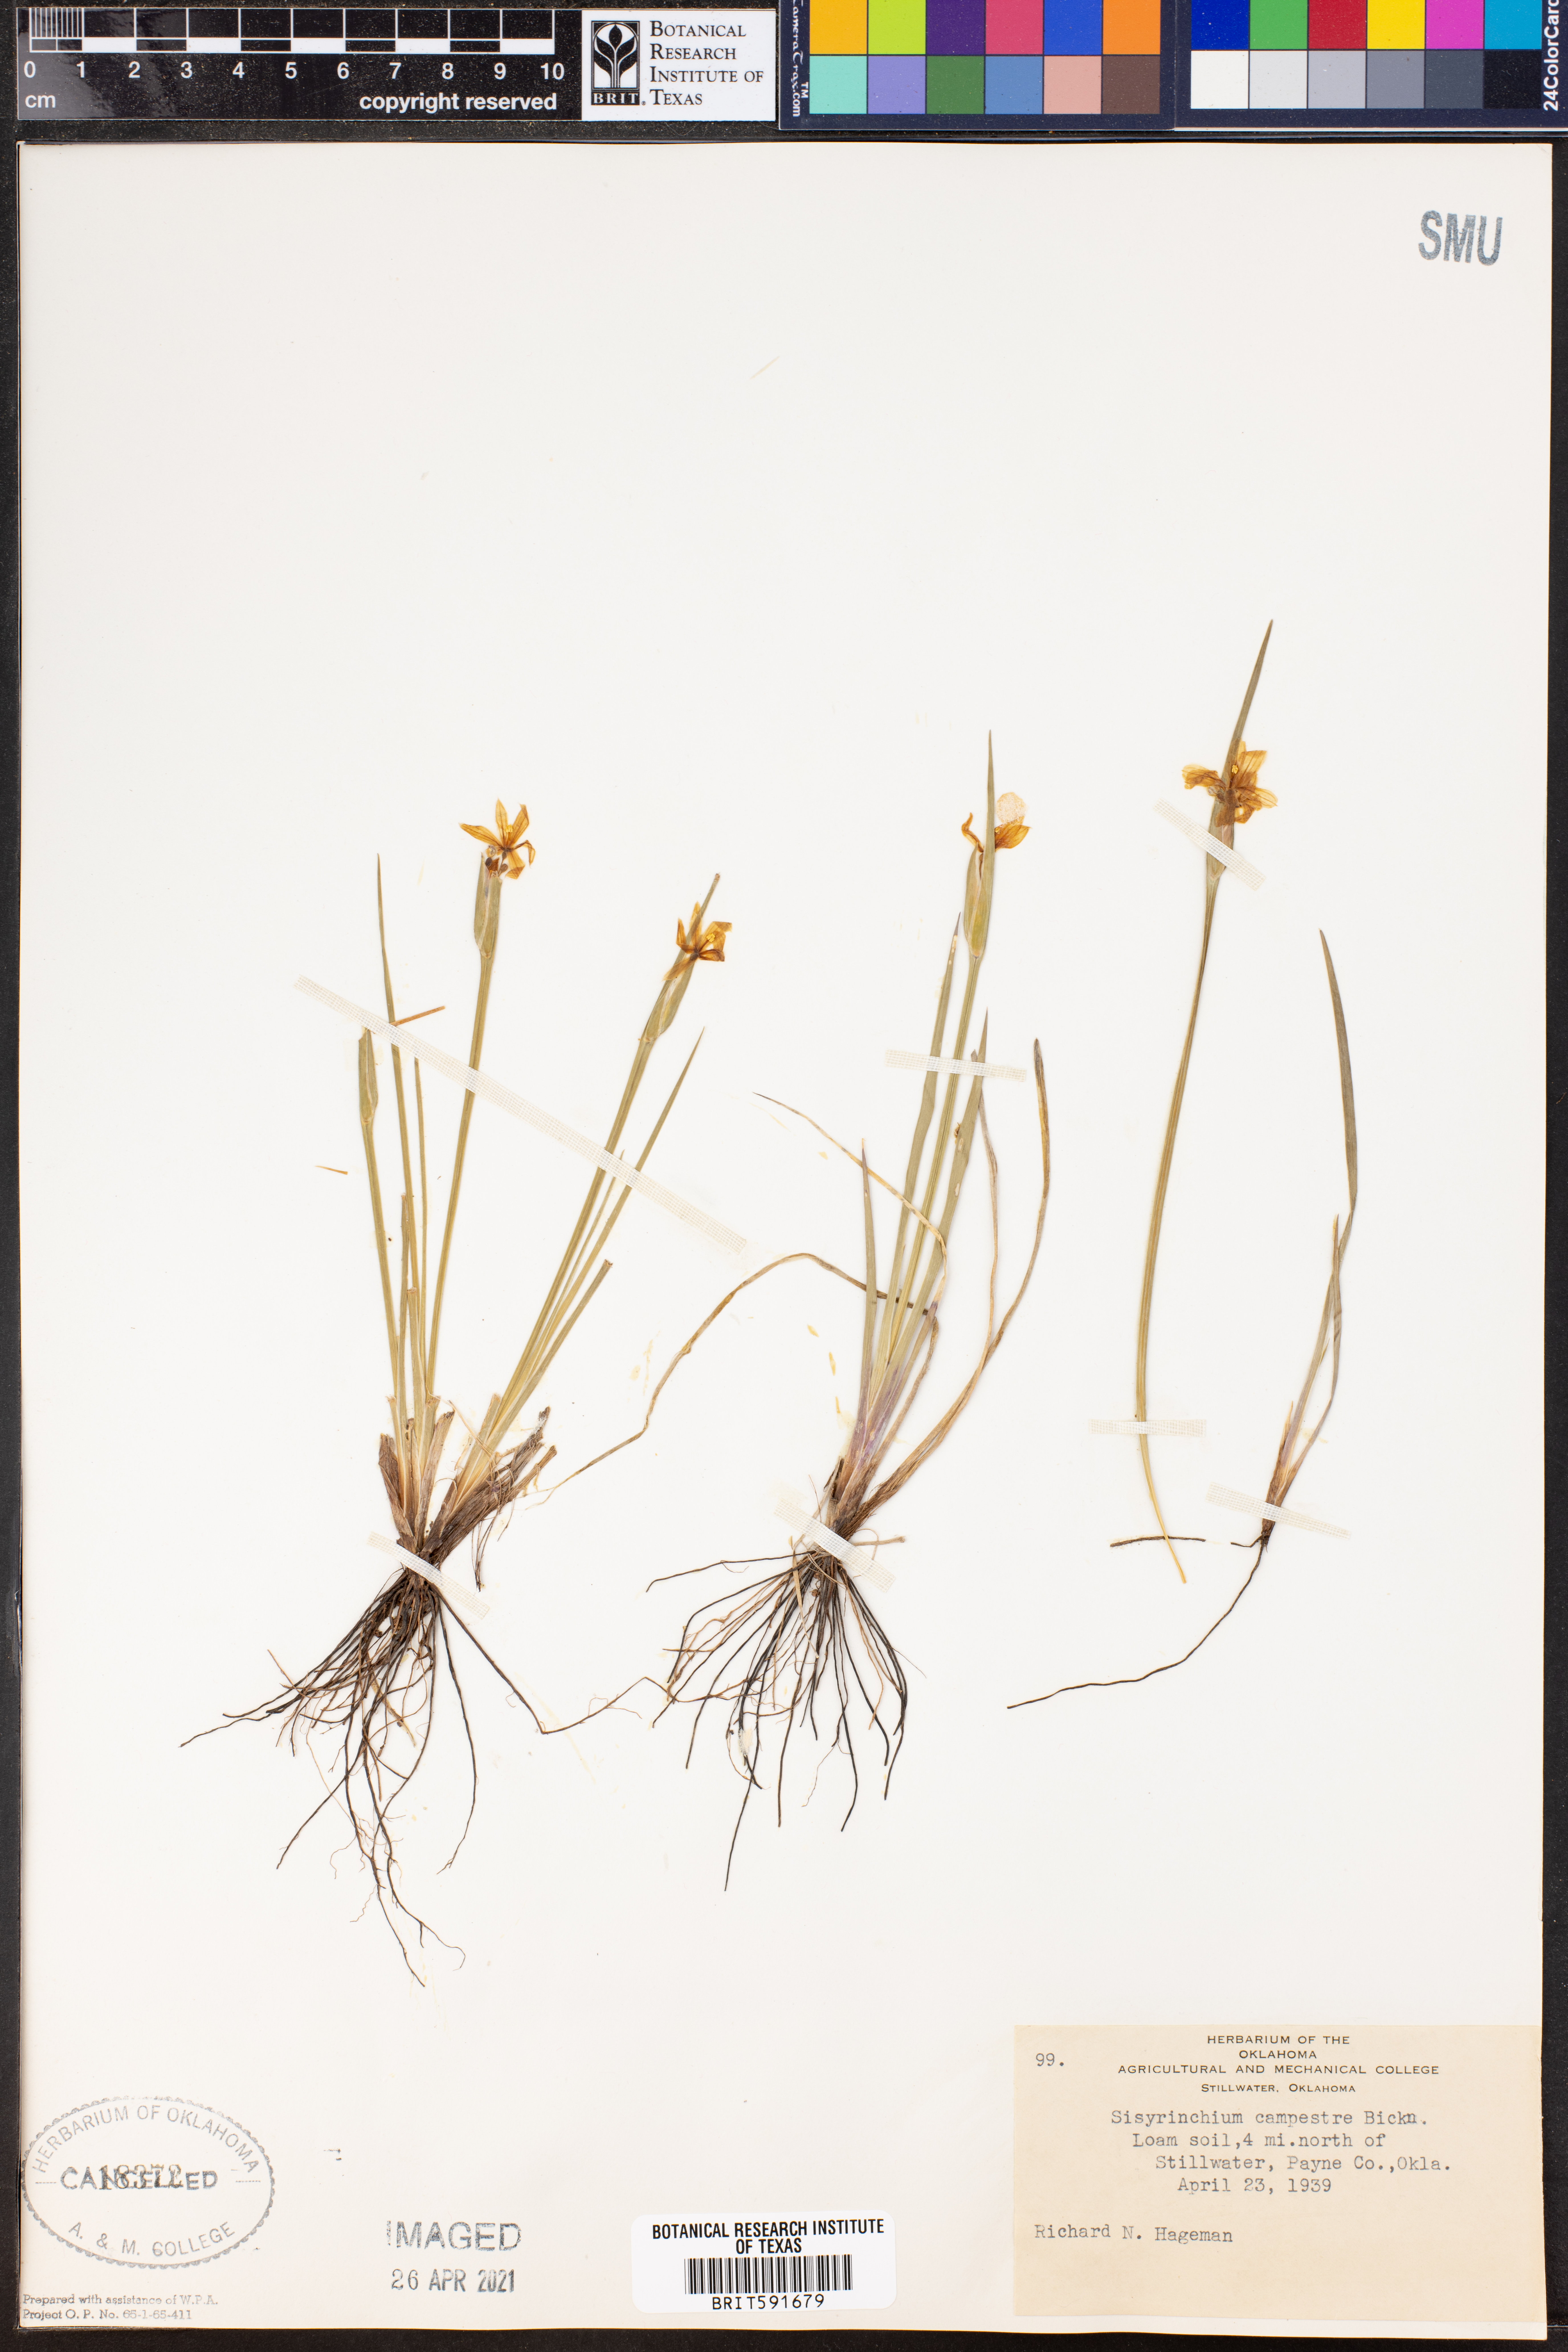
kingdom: Plantae
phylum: Tracheophyta
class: Liliopsida
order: Asparagales
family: Iridaceae
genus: Sisyrinchium
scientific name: Sisyrinchium campestre
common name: Prairie blue-eyed-grass
